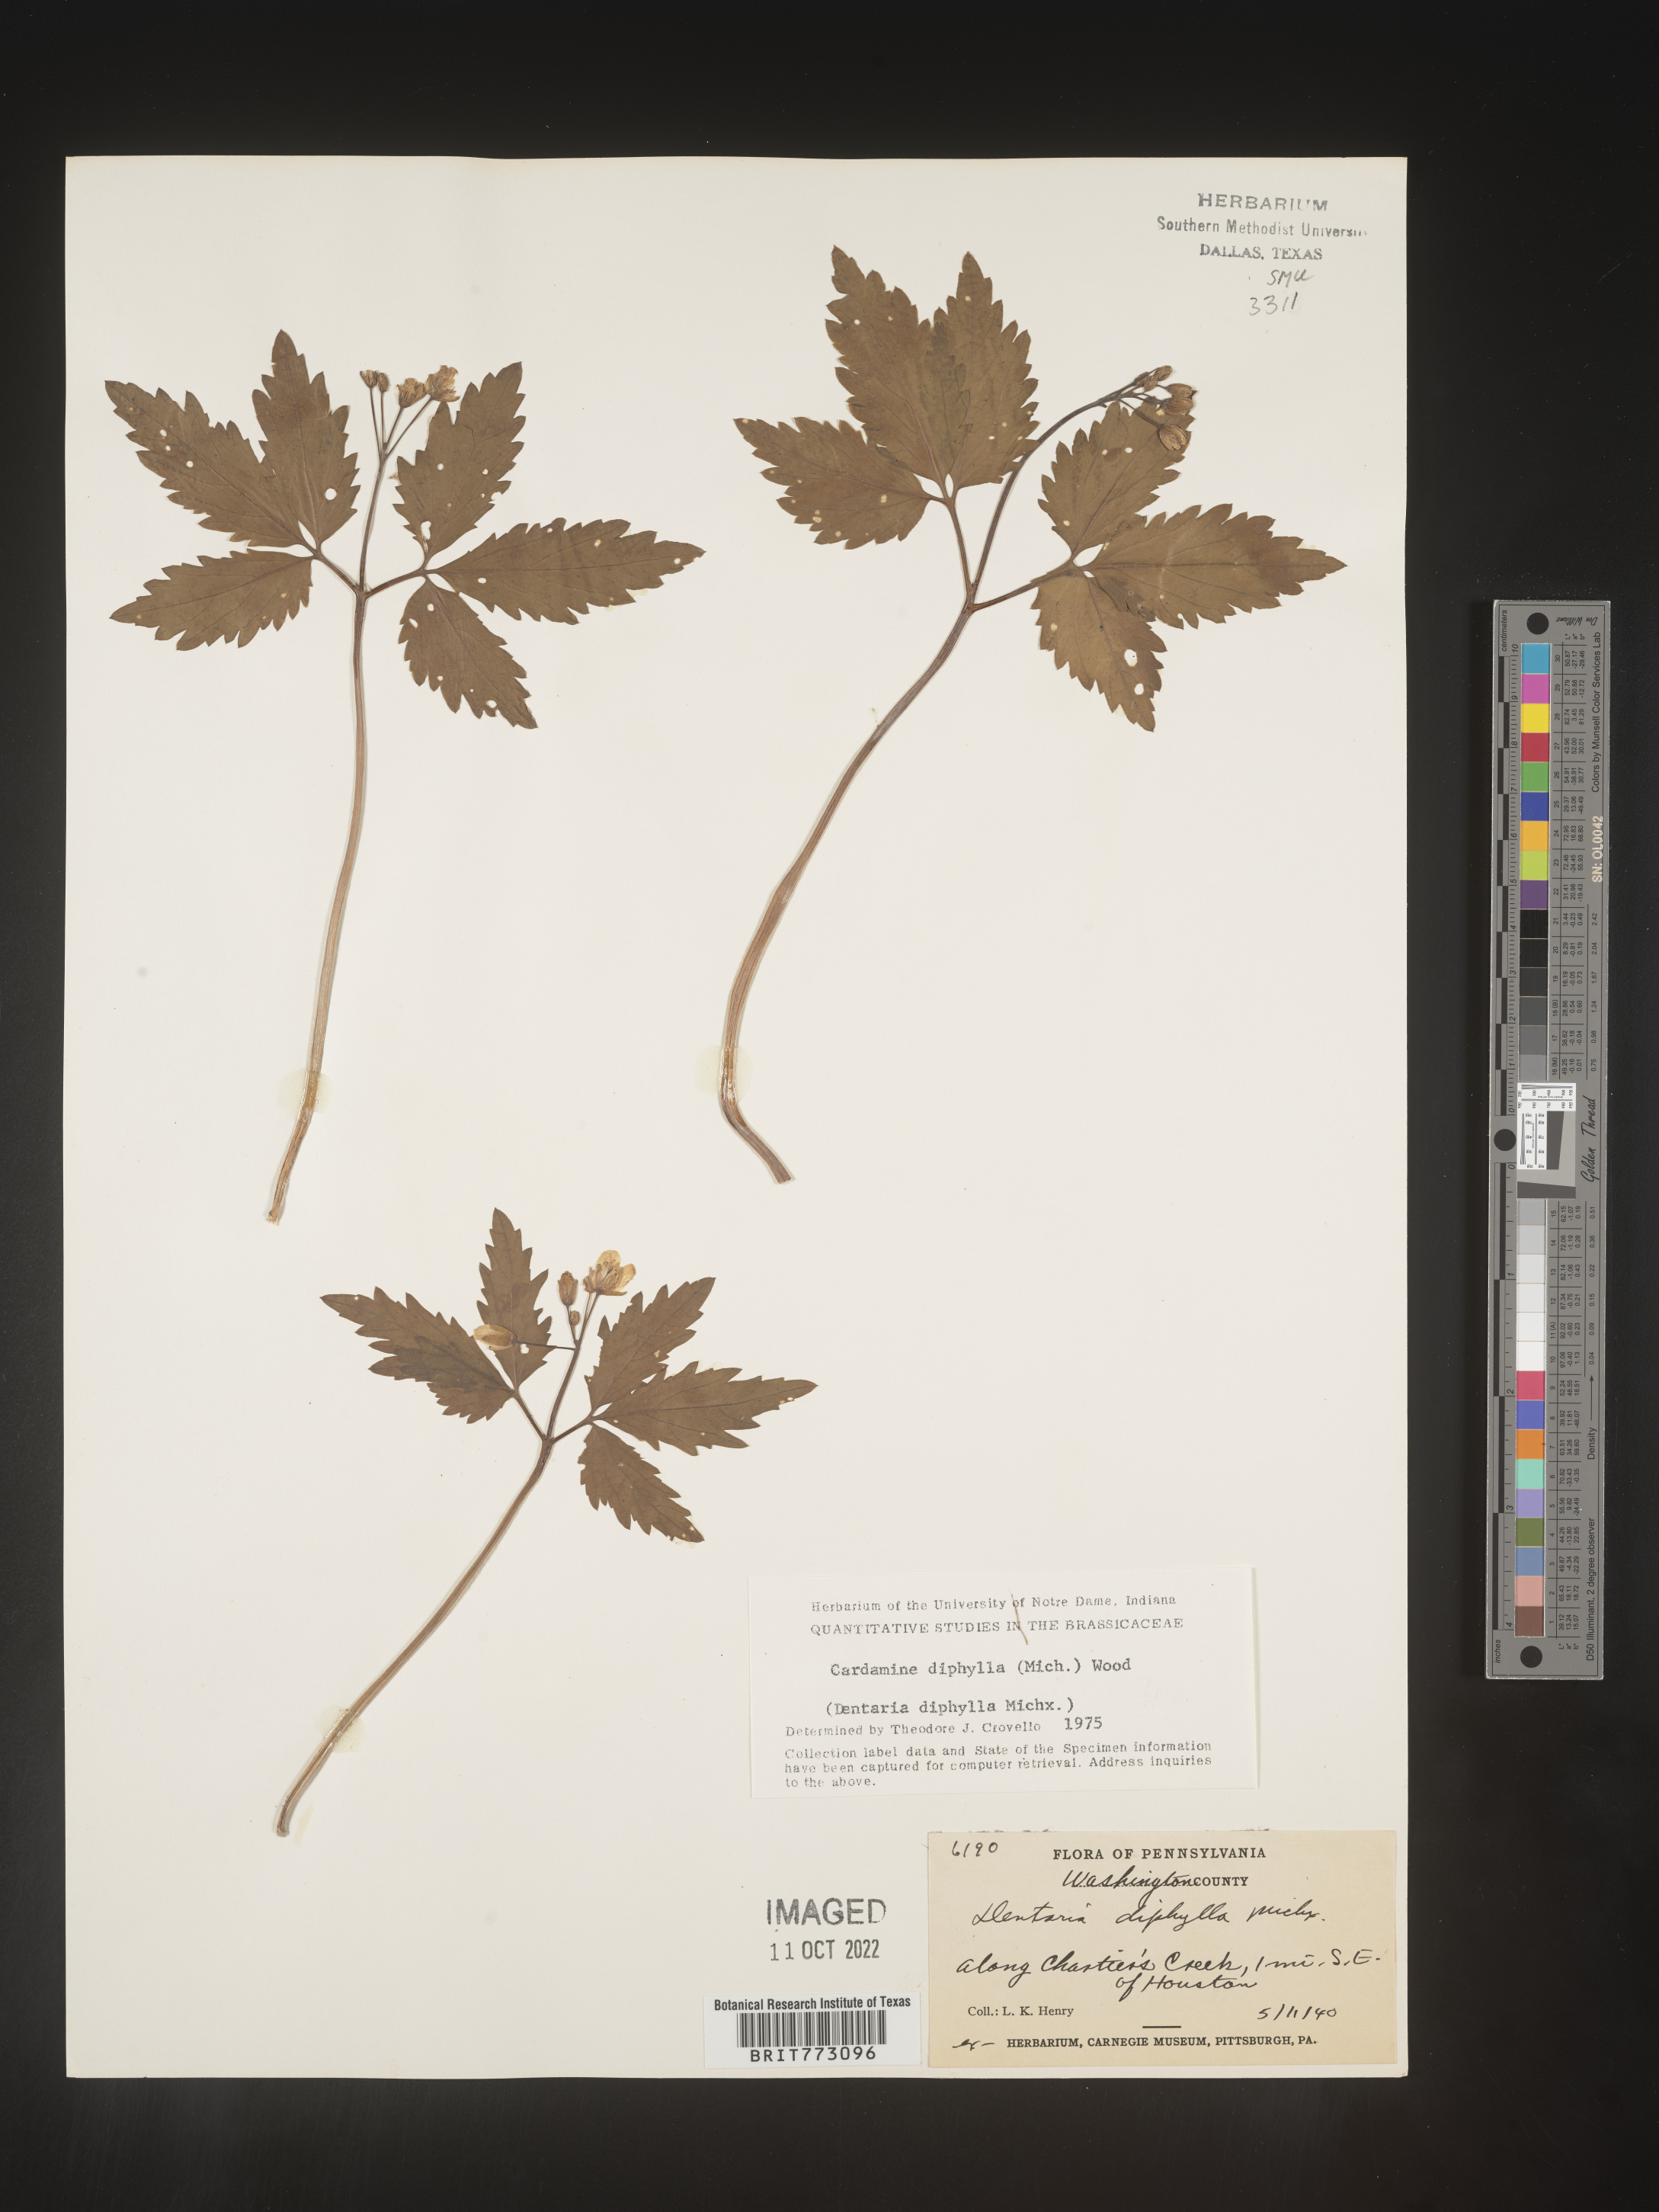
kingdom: Plantae
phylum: Tracheophyta
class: Magnoliopsida
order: Brassicales
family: Brassicaceae
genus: Cardamine
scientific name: Cardamine diphylla
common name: Broad-leaved toothwort
